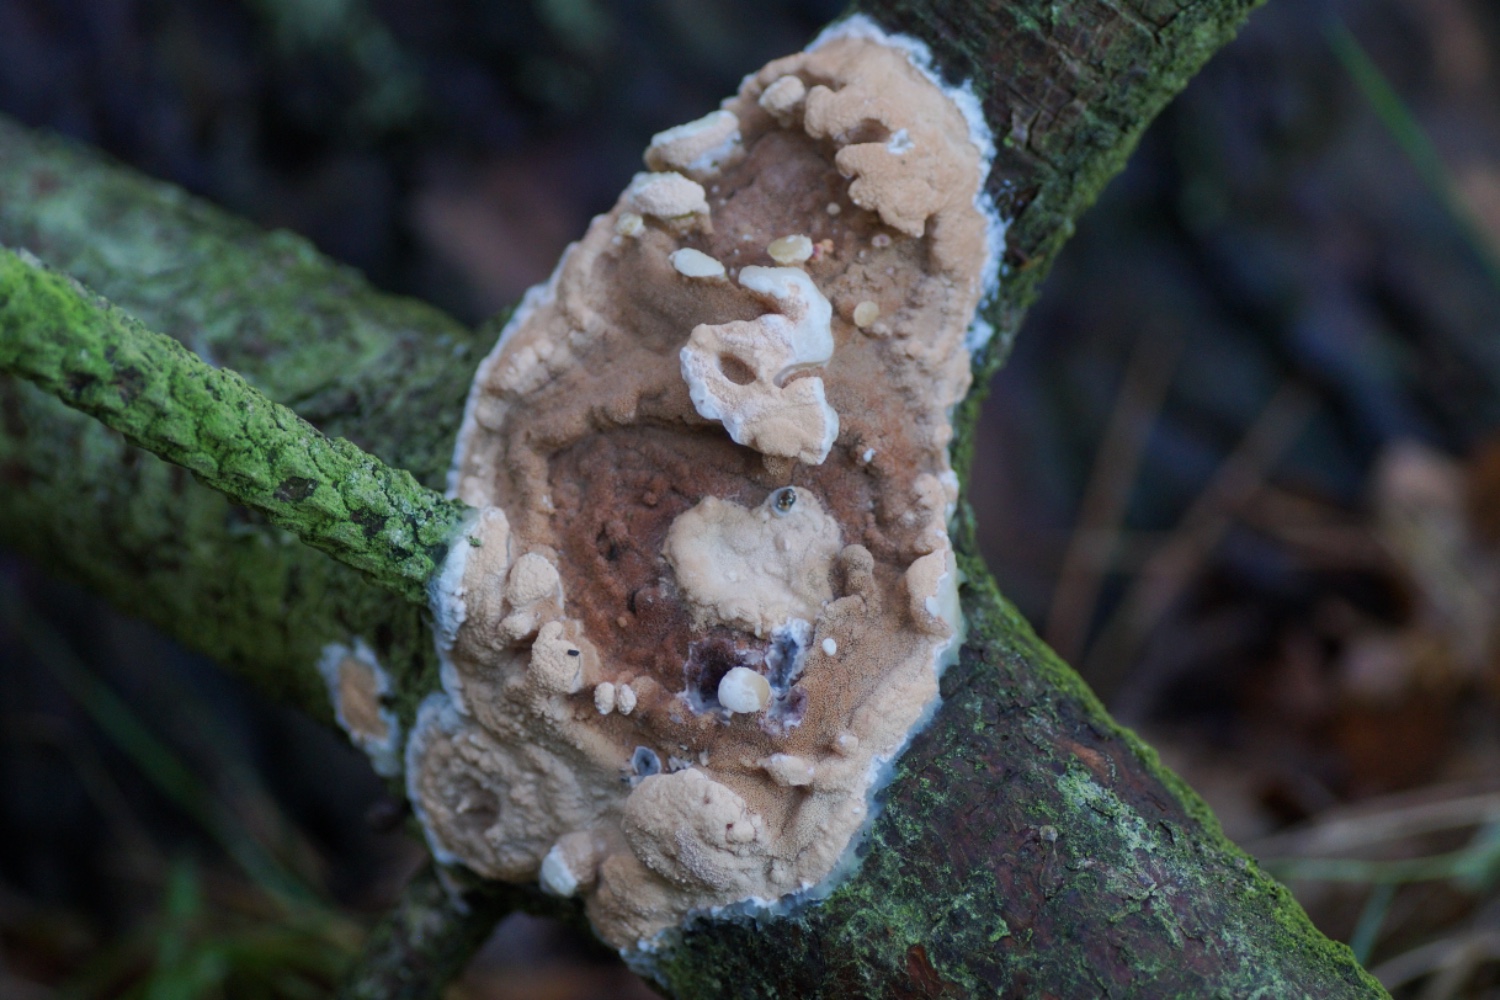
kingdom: Fungi
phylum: Basidiomycota
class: Agaricomycetes
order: Polyporales
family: Irpicaceae
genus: Meruliopsis
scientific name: Meruliopsis taxicola
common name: purpurbrun foldporesvamp
